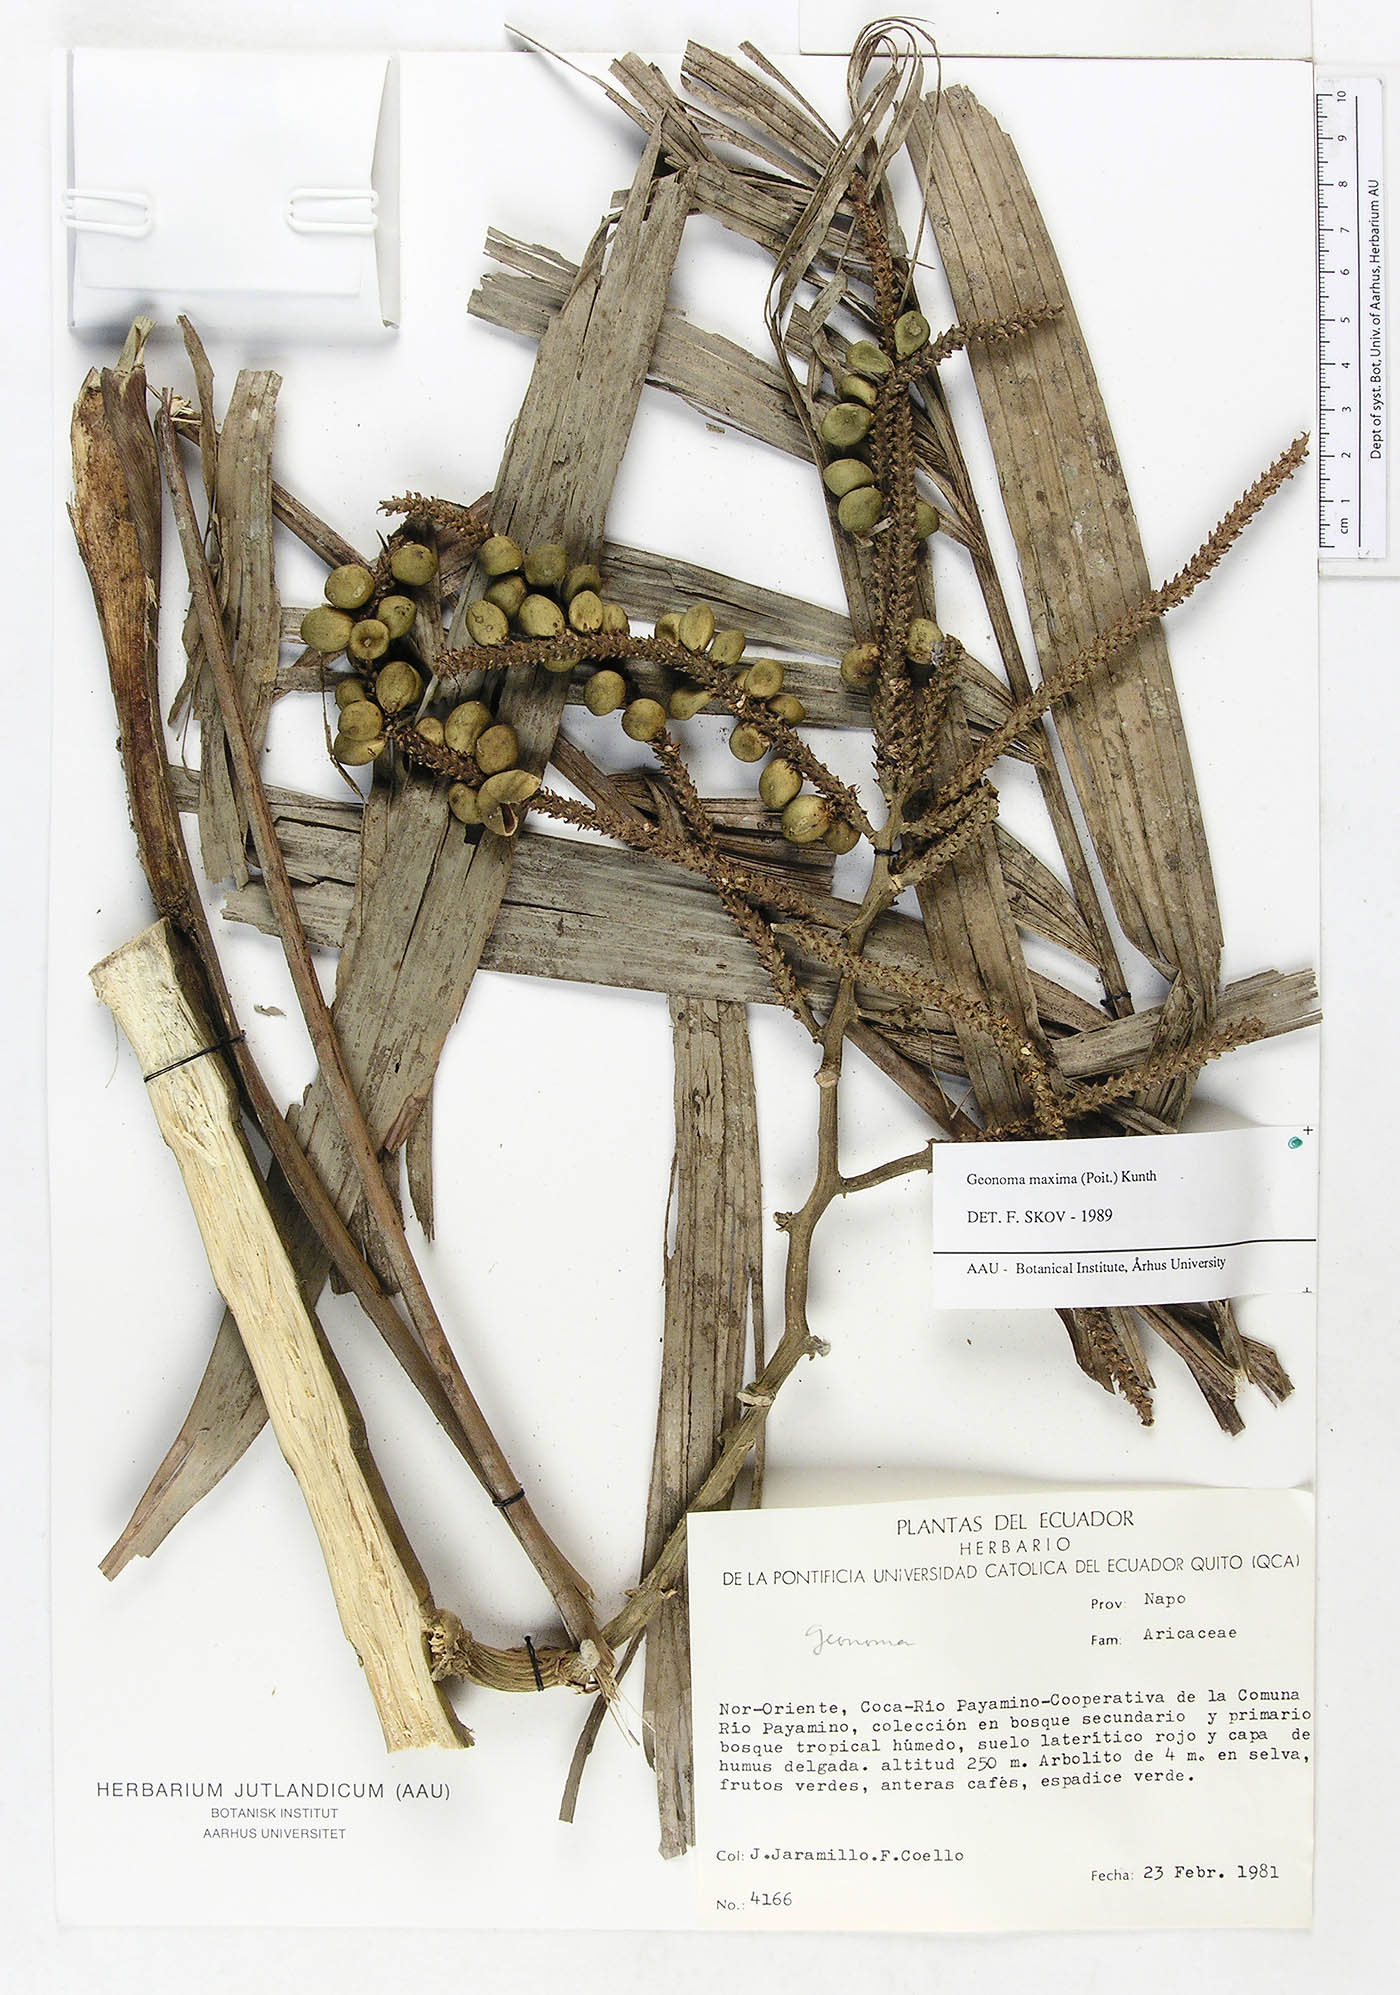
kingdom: Plantae
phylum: Tracheophyta
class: Liliopsida
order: Arecales
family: Arecaceae
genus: Geonoma
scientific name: Geonoma maxima
